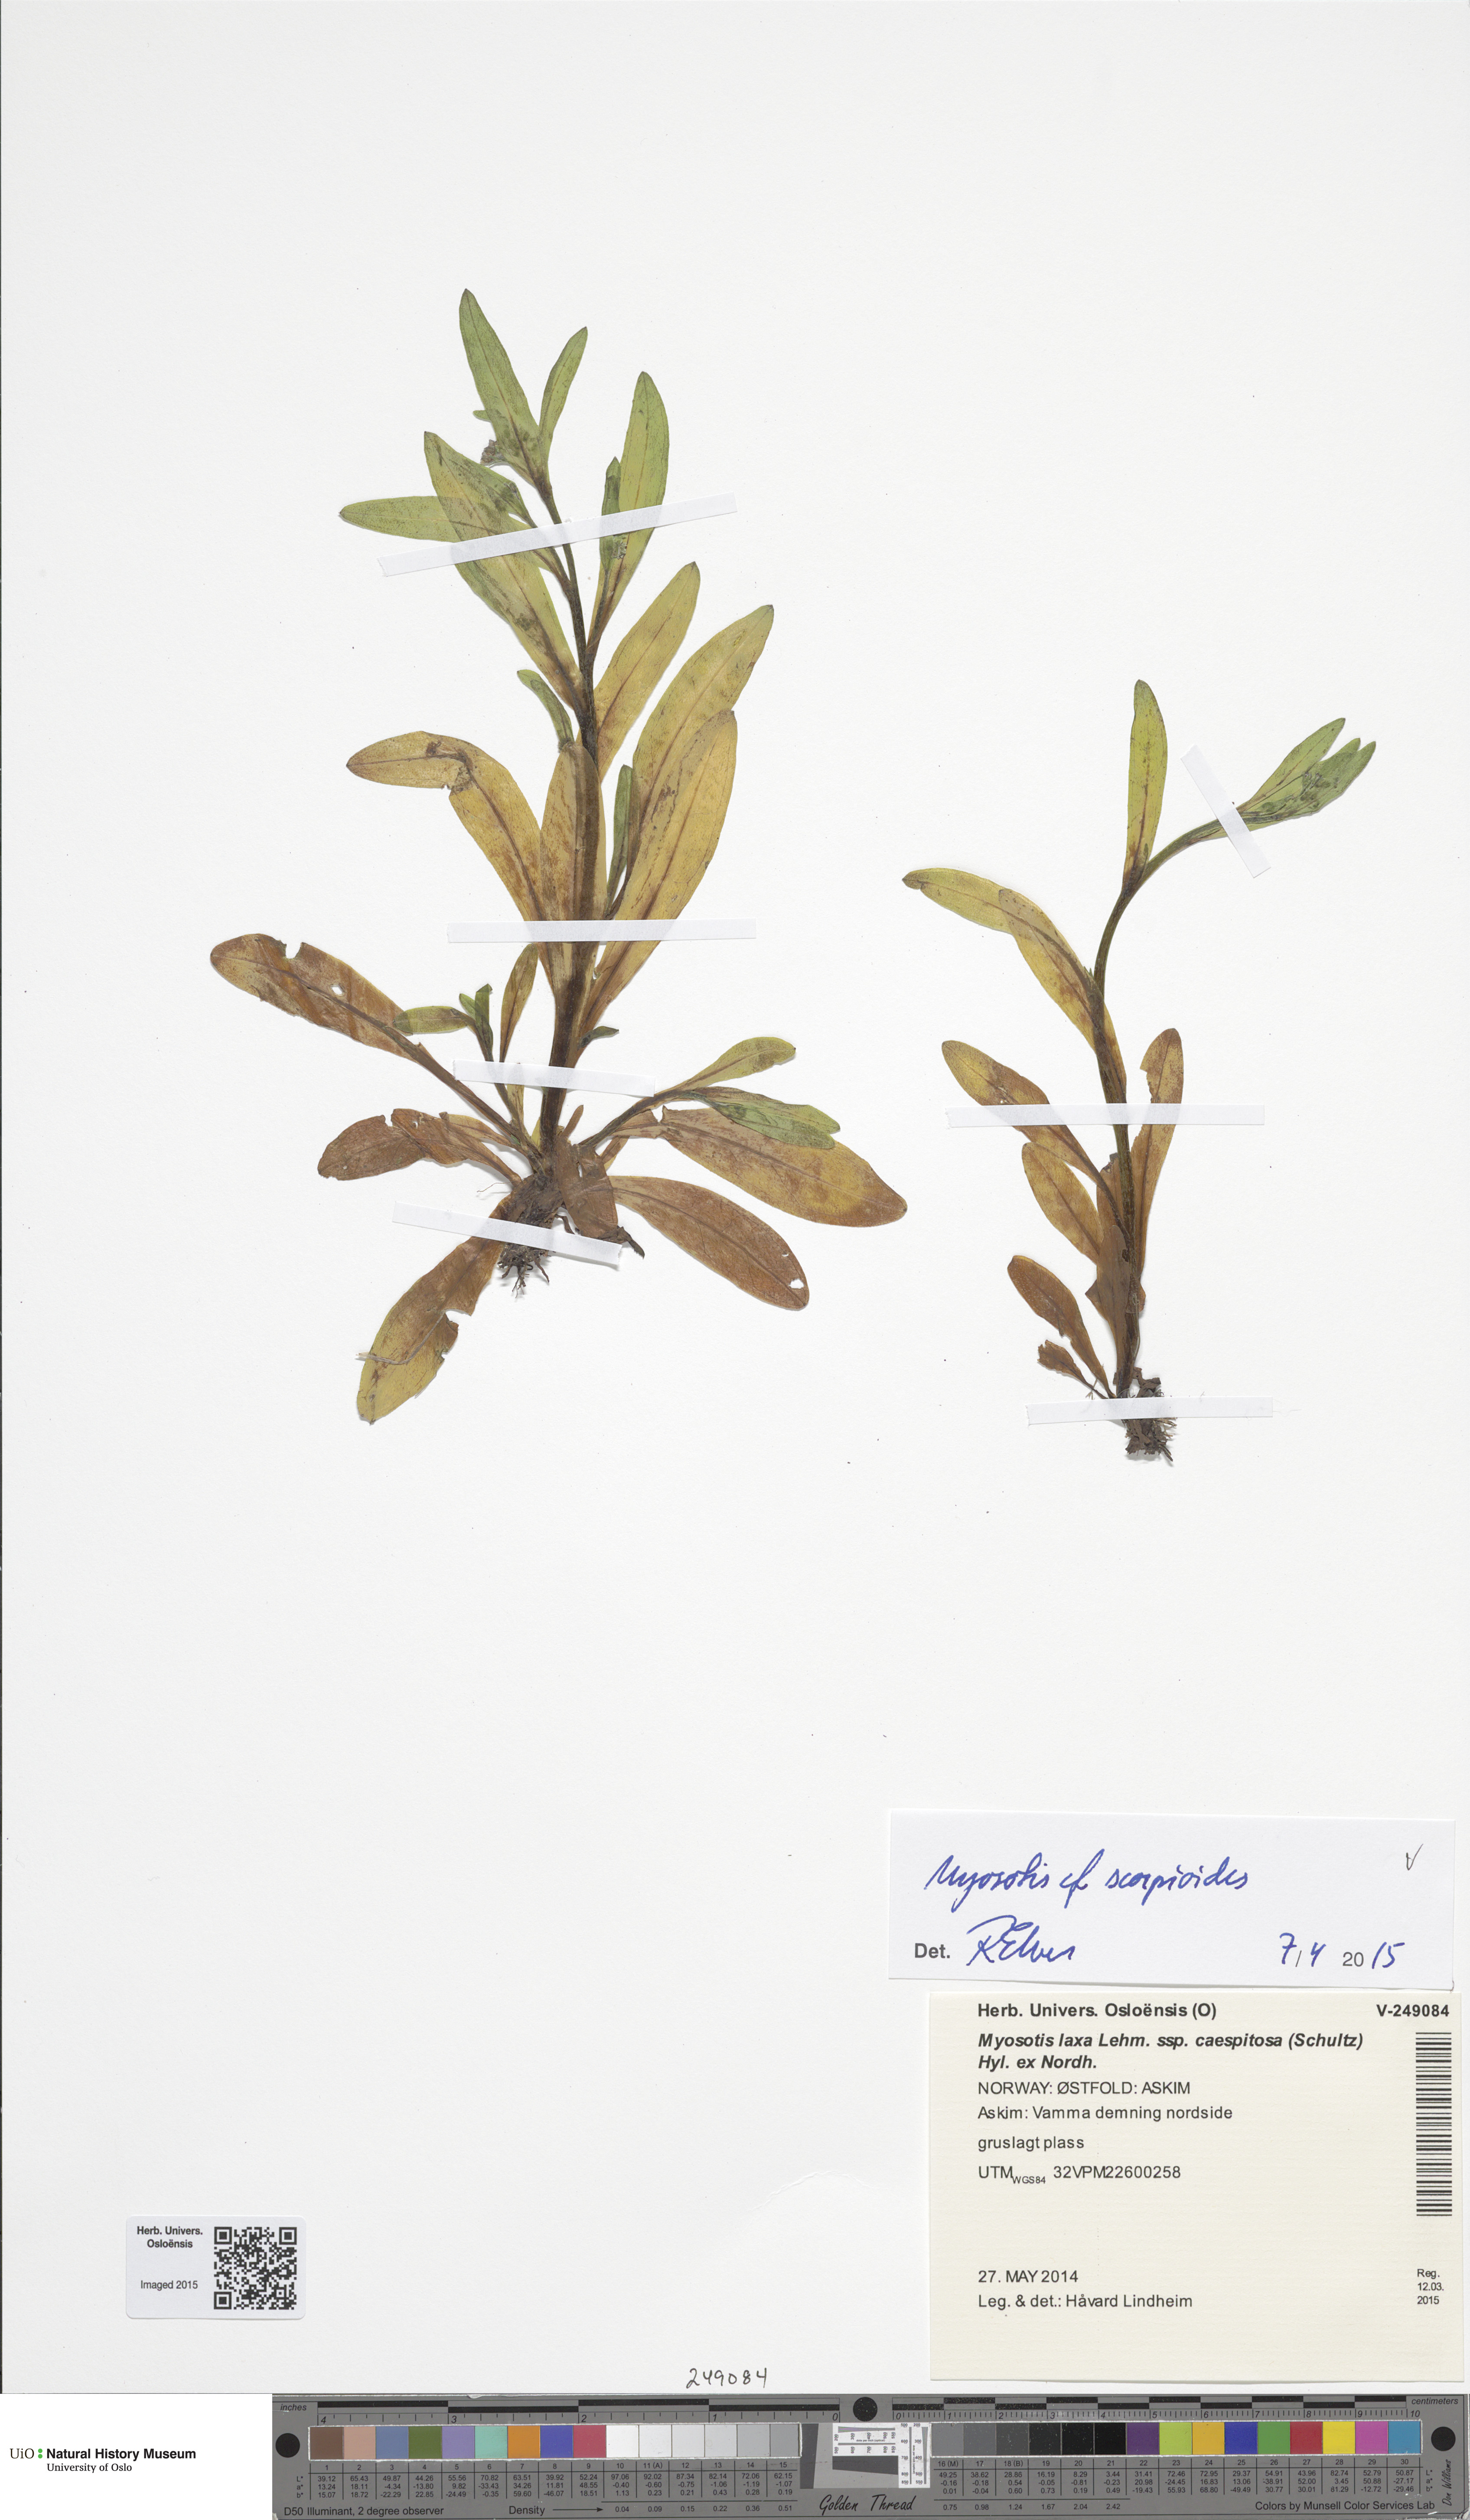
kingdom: Plantae
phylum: Tracheophyta
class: Magnoliopsida
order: Boraginales
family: Boraginaceae
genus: Myosotis
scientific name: Myosotis scorpioides
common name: Water forget-me-not
